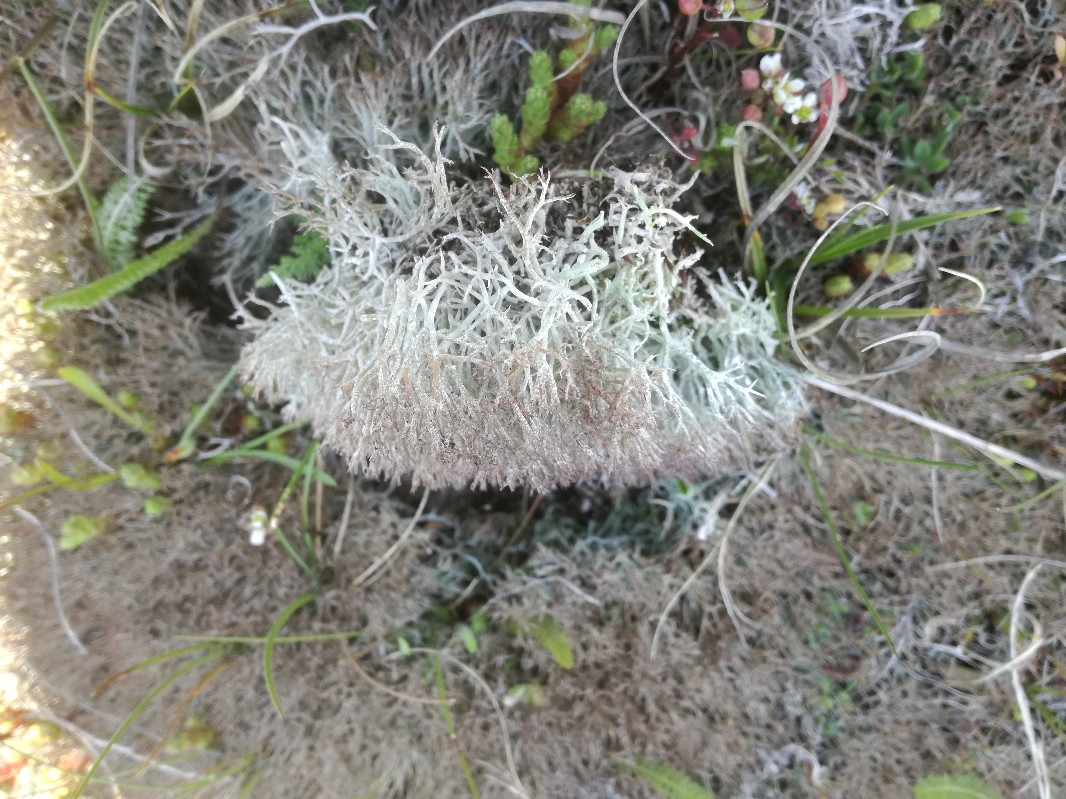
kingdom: Fungi
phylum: Ascomycota
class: Lecanoromycetes
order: Lecanorales
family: Cladoniaceae
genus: Cladonia
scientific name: Cladonia rangiformis
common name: spættet bægerlav
